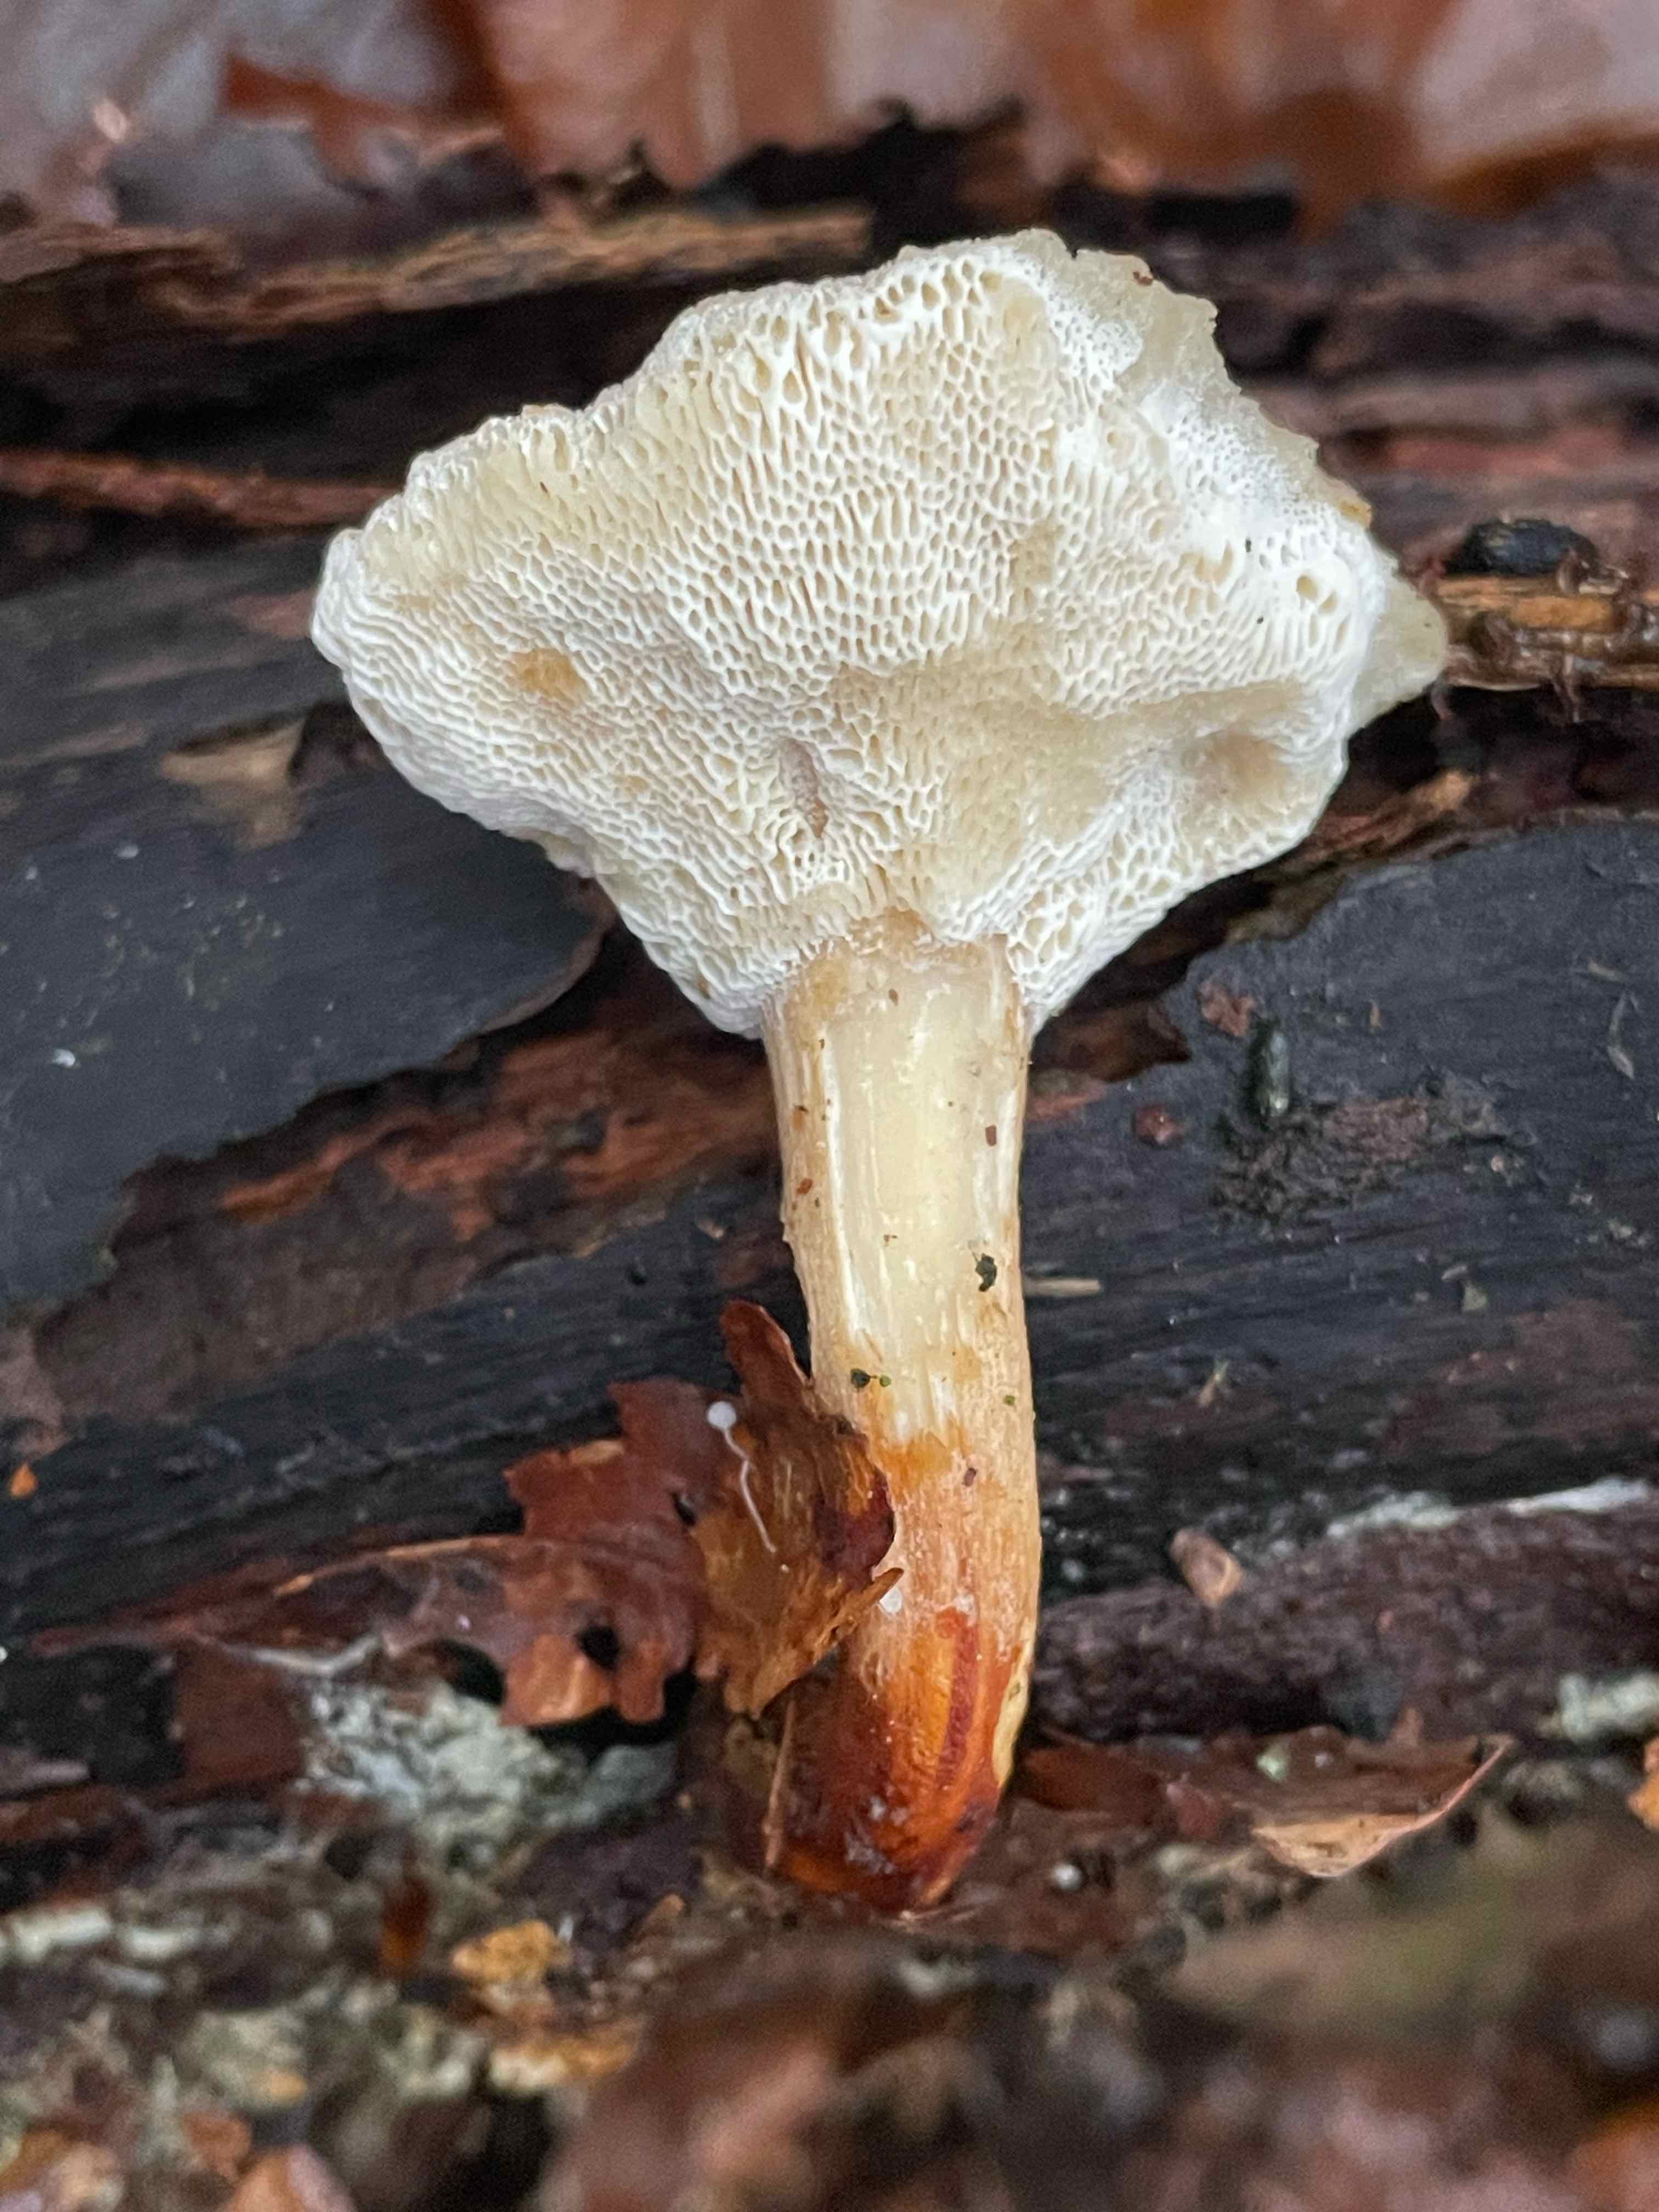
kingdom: Fungi
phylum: Basidiomycota
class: Agaricomycetes
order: Polyporales
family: Polyporaceae
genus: Lentinus
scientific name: Lentinus brumalis
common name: vinter-stilkporesvamp
